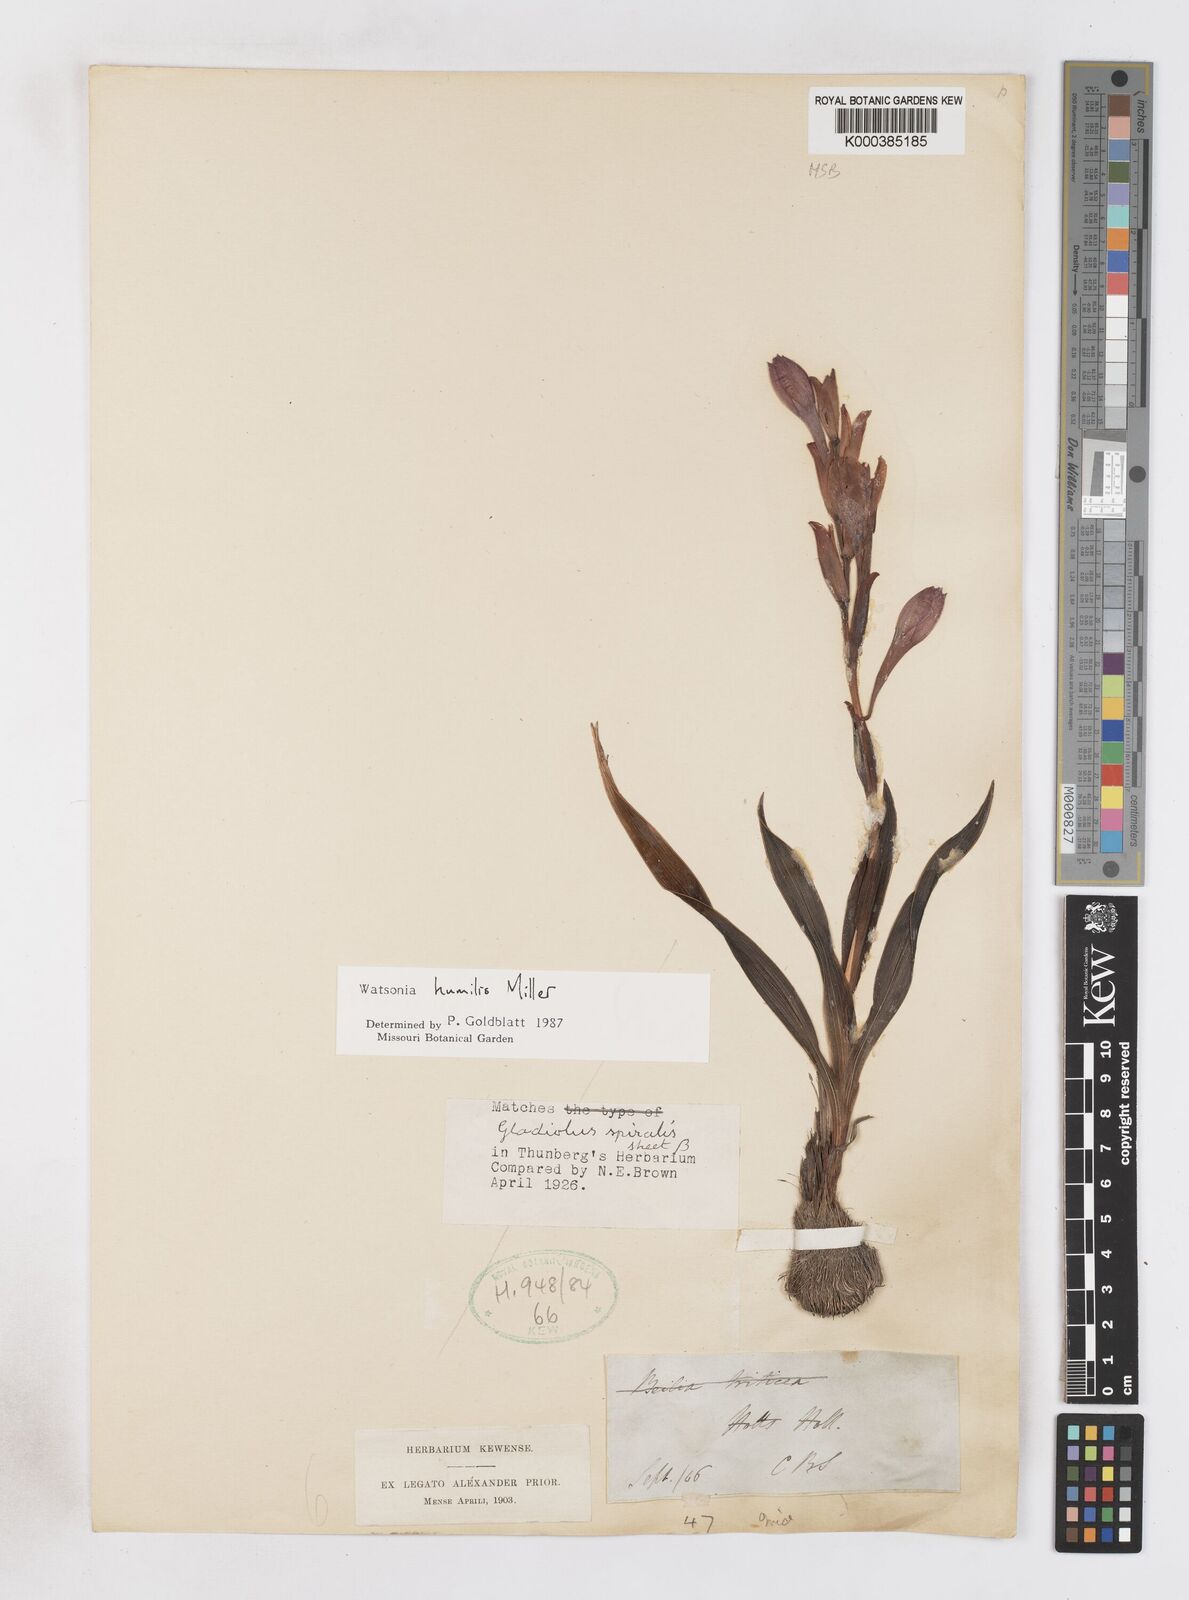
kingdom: Plantae
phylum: Tracheophyta
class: Liliopsida
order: Asparagales
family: Iridaceae
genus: Watsonia
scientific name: Watsonia humilis
